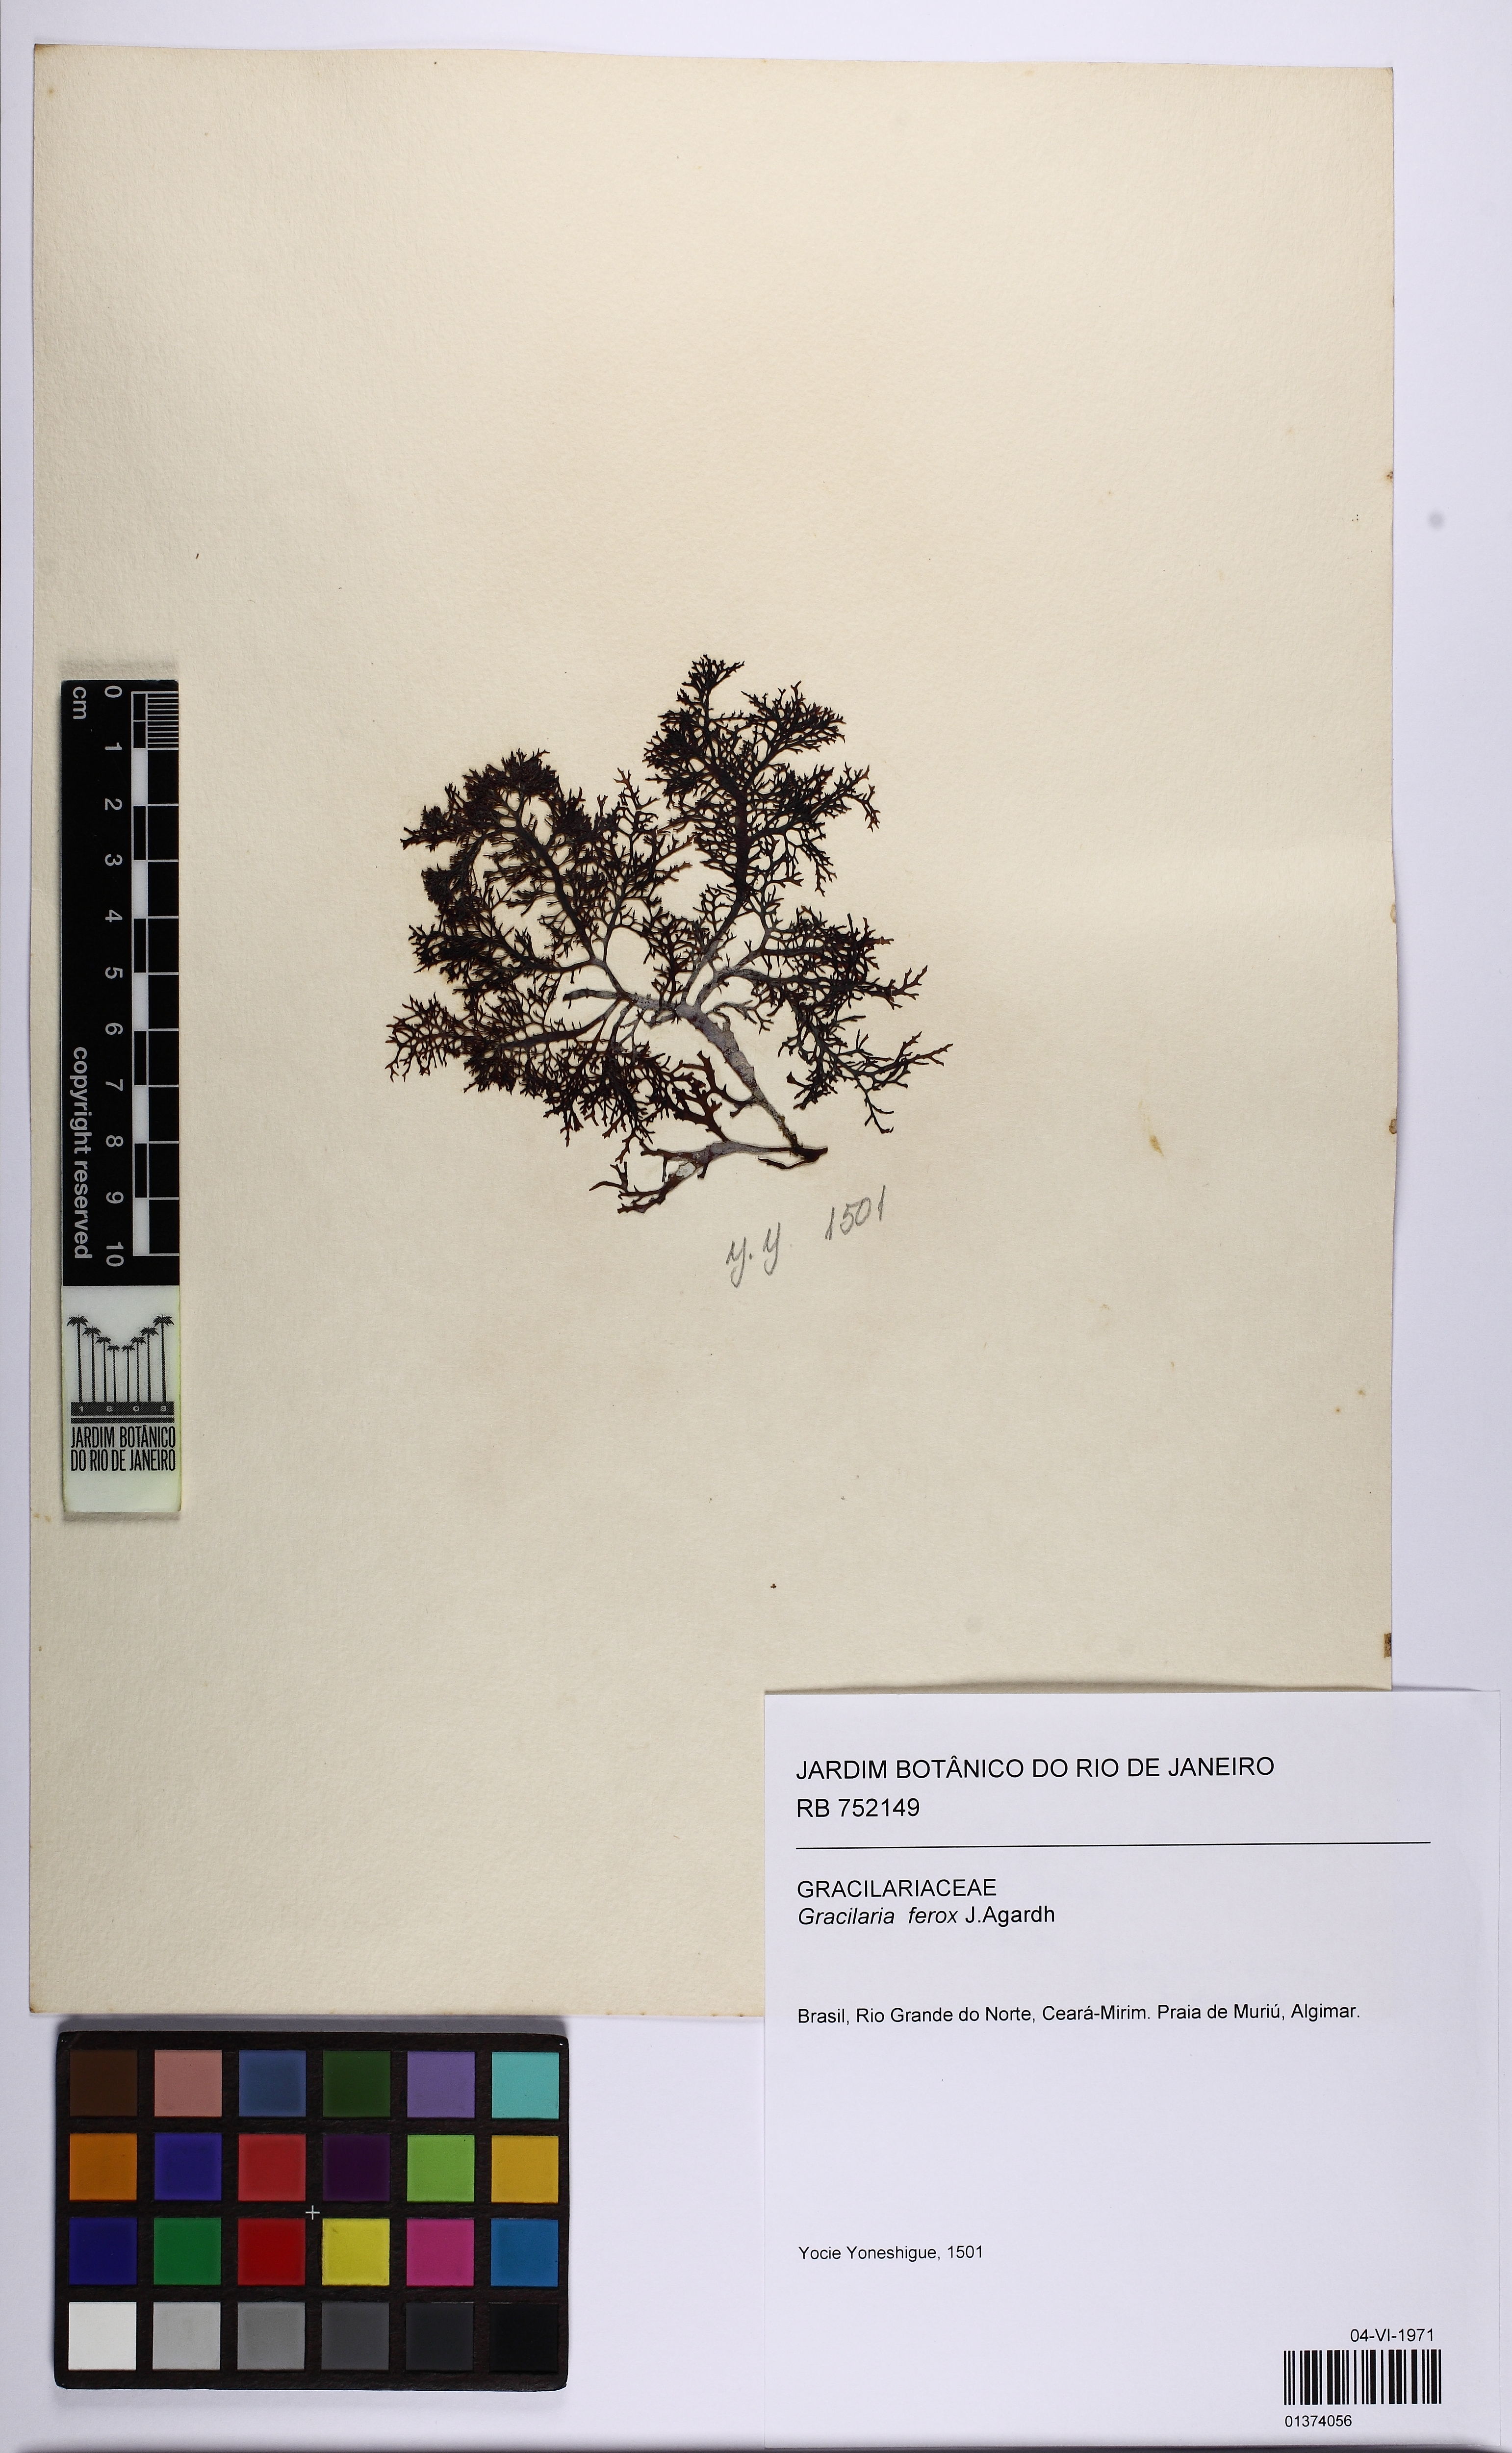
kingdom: Plantae
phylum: Rhodophyta
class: Florideophyceae
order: Gracilariales
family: Gracilariaceae
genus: Gracilaria
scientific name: Gracilaria ferox
